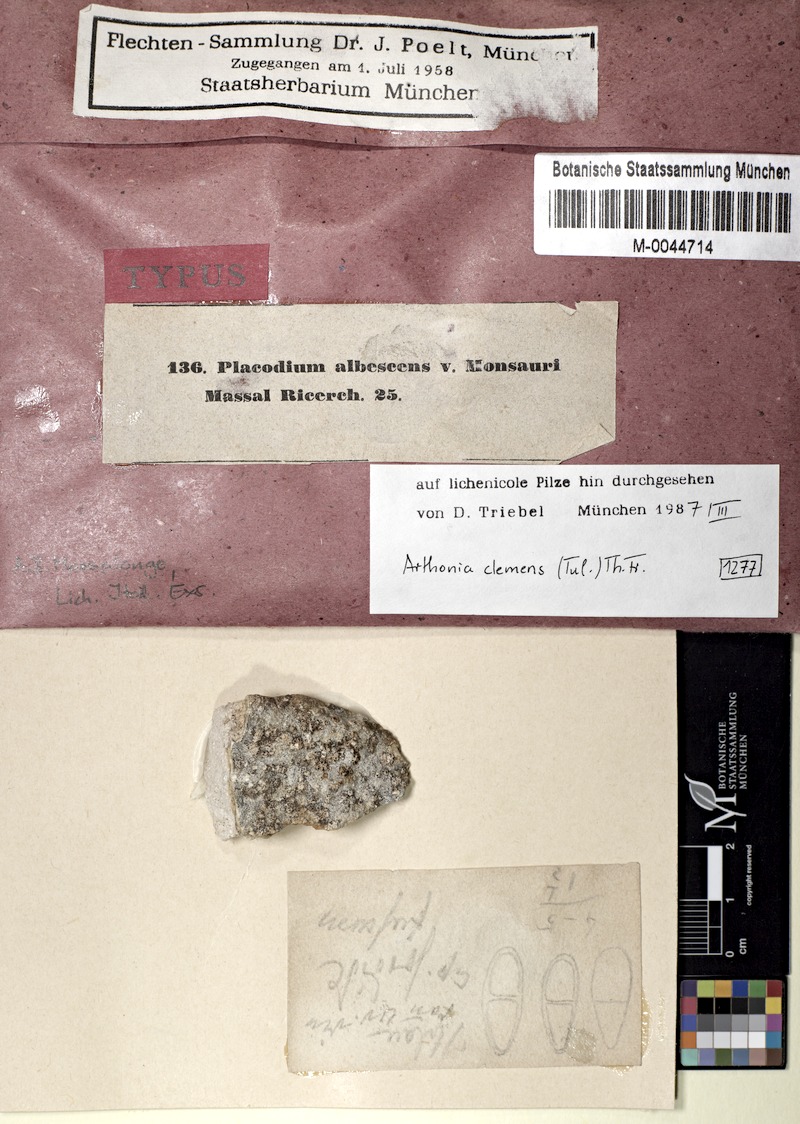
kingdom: Fungi
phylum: Ascomycota
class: Arthoniomycetes
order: Arthoniales
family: Arthoniaceae
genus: Bryostigma
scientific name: Bryostigma apotheciorum
